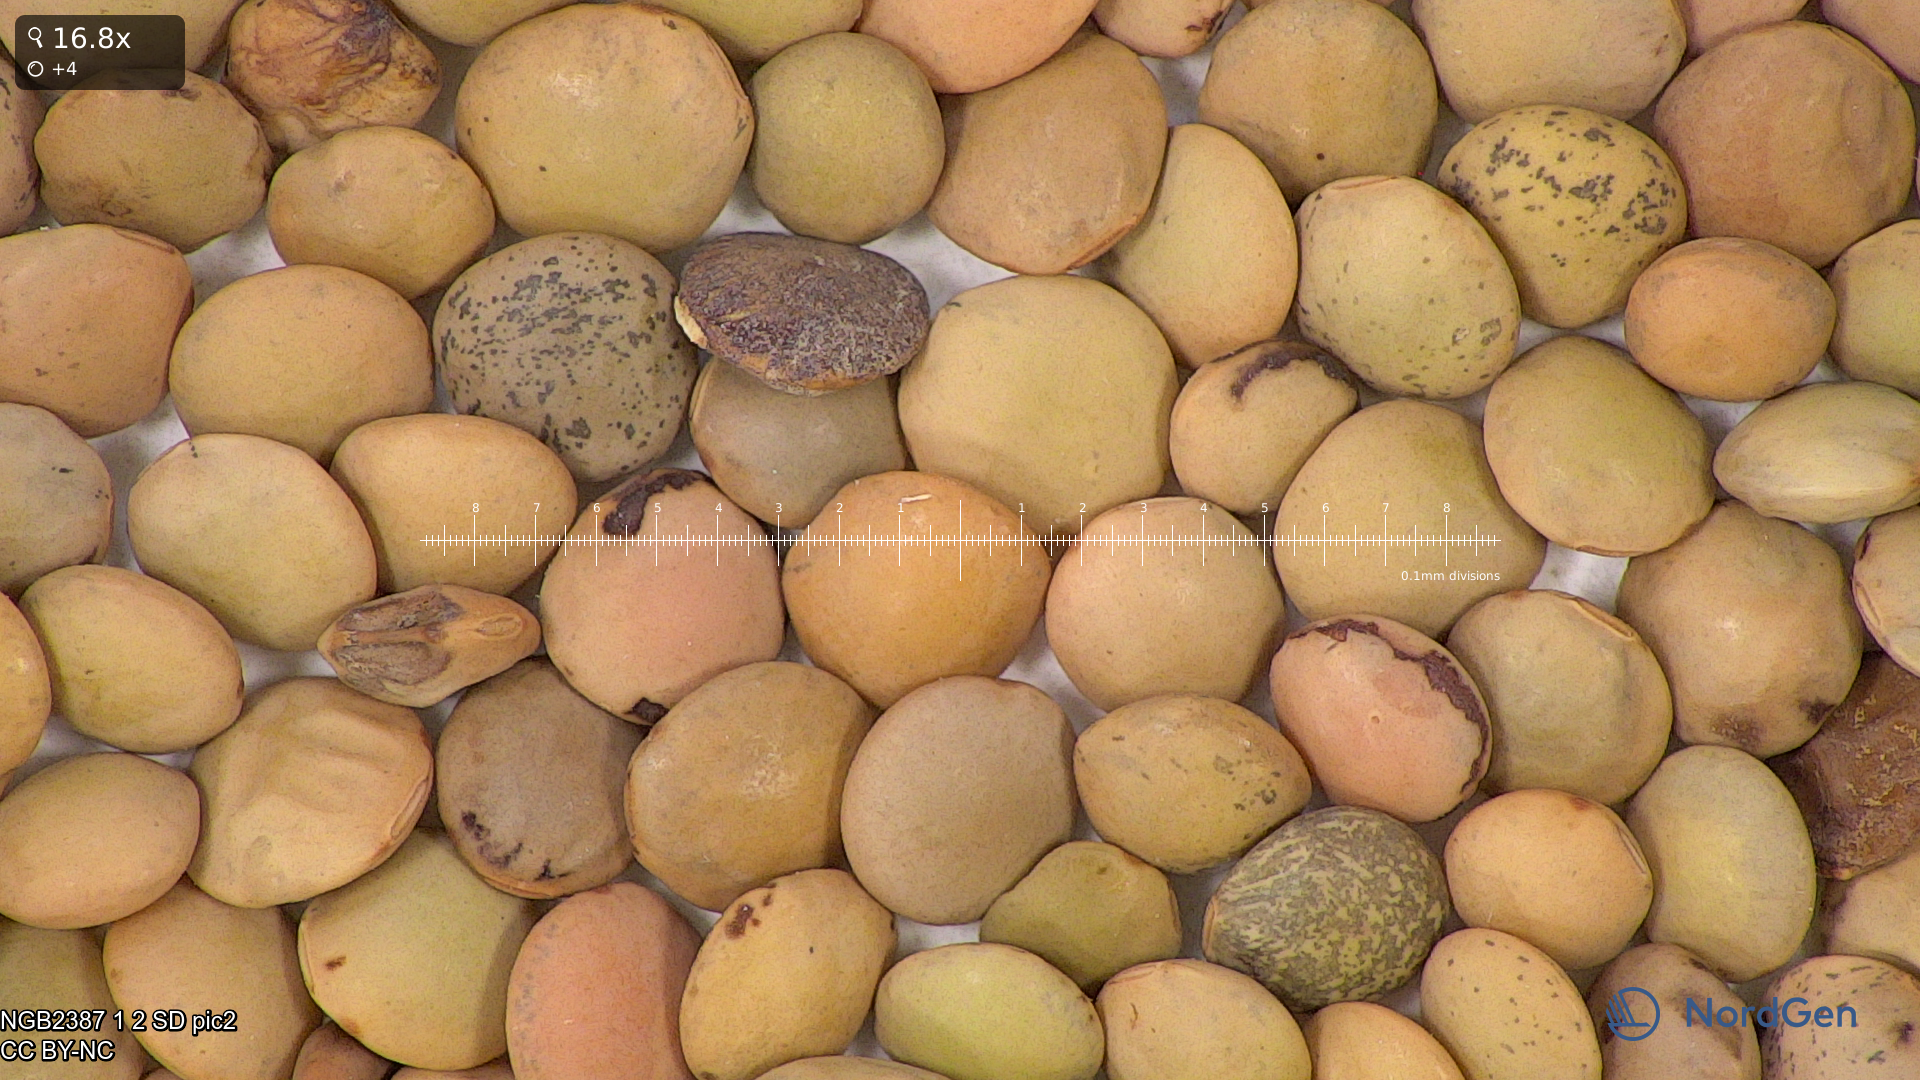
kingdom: Plantae
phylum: Tracheophyta
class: Magnoliopsida
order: Fabales
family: Fabaceae
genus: Vicia
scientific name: Vicia lens
